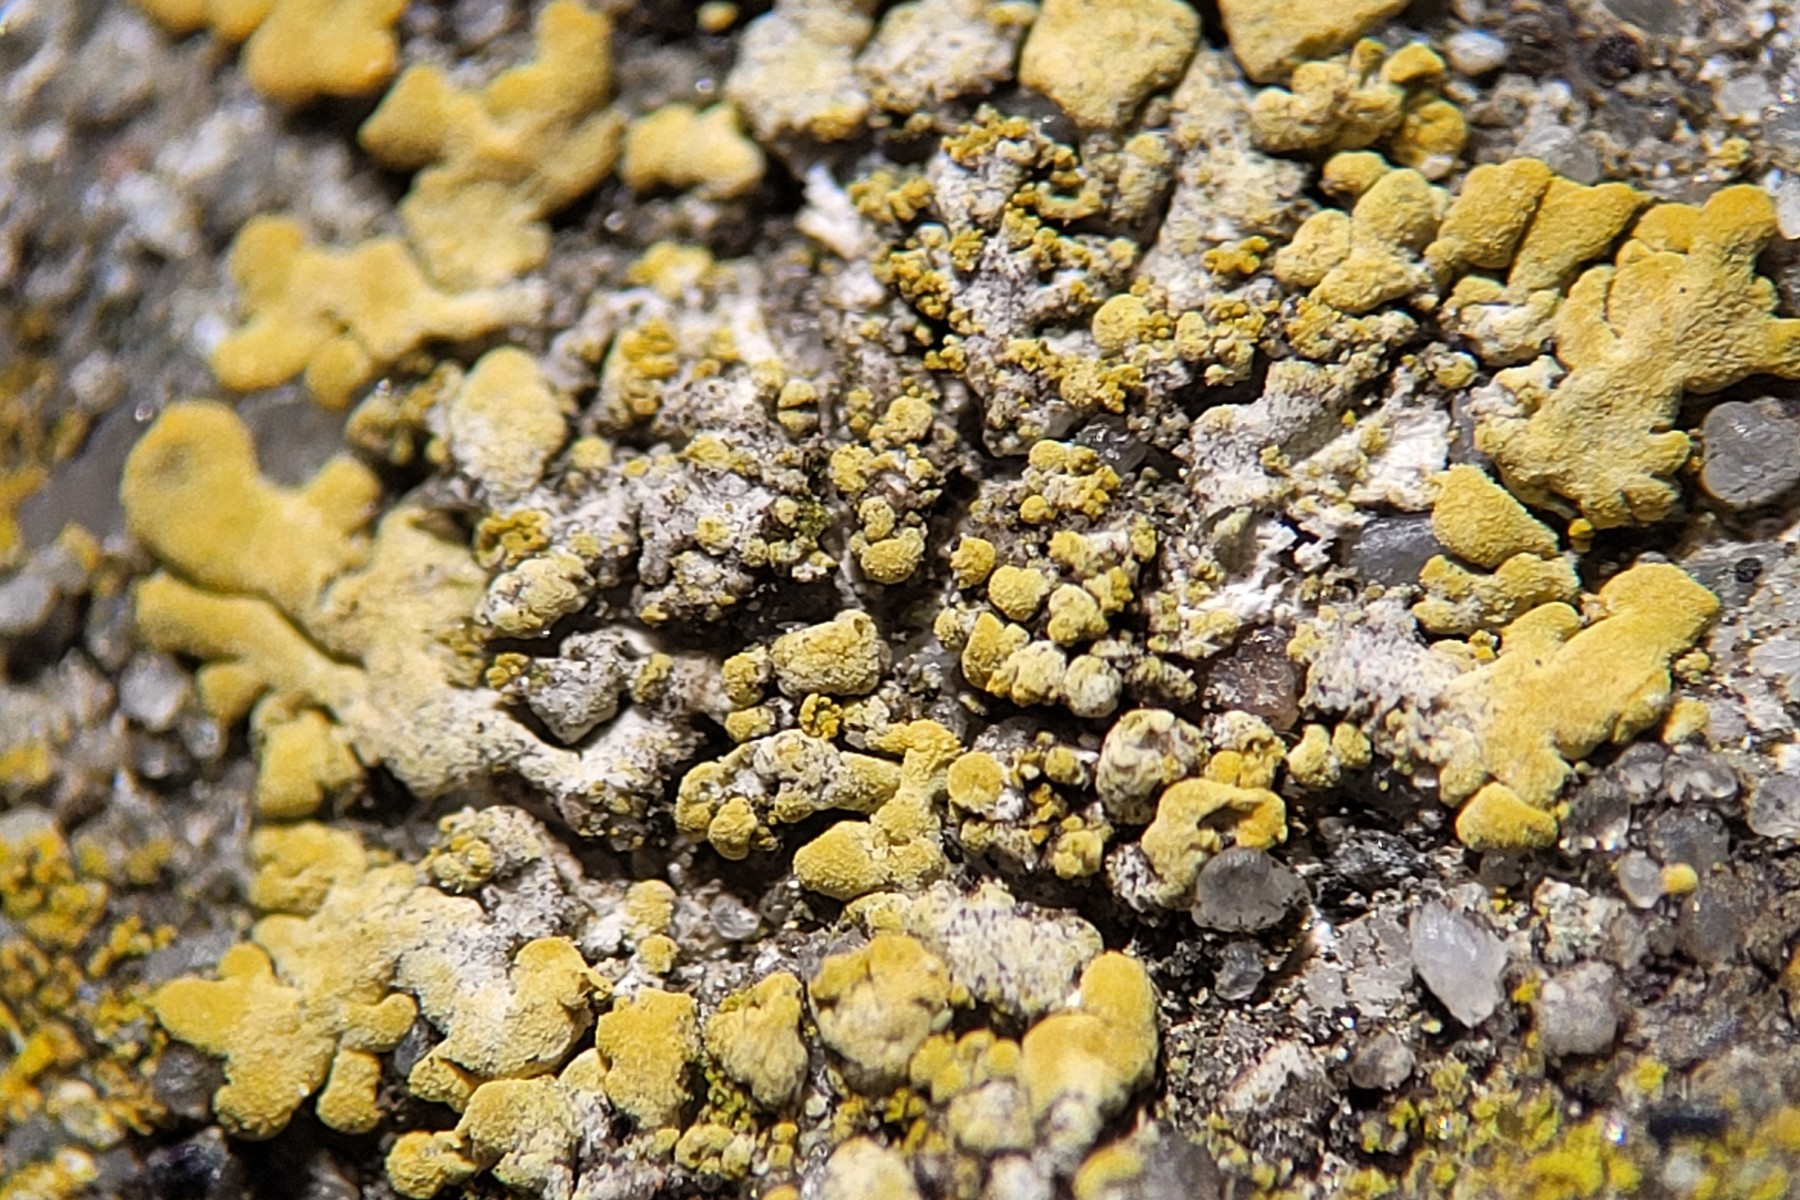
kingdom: Fungi
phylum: Ascomycota
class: Lecanoromycetes
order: Teloschistales
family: Teloschistaceae
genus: Calogaya
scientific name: Calogaya decipiens
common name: knudret orangelav
